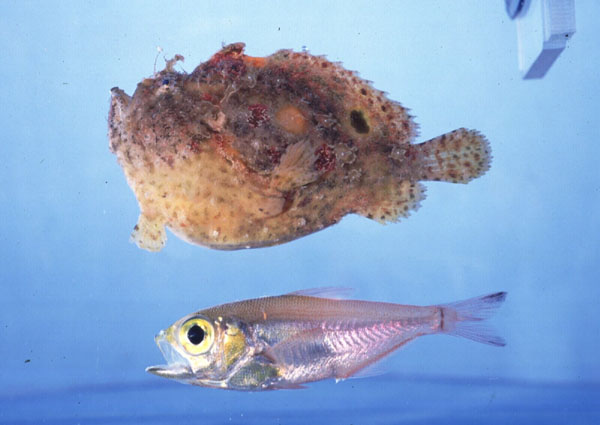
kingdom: Animalia
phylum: Chordata
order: Lophiiformes
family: Antennariidae
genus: Antennatus
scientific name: Antennatus coccineus
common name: Scarlet frogfish
